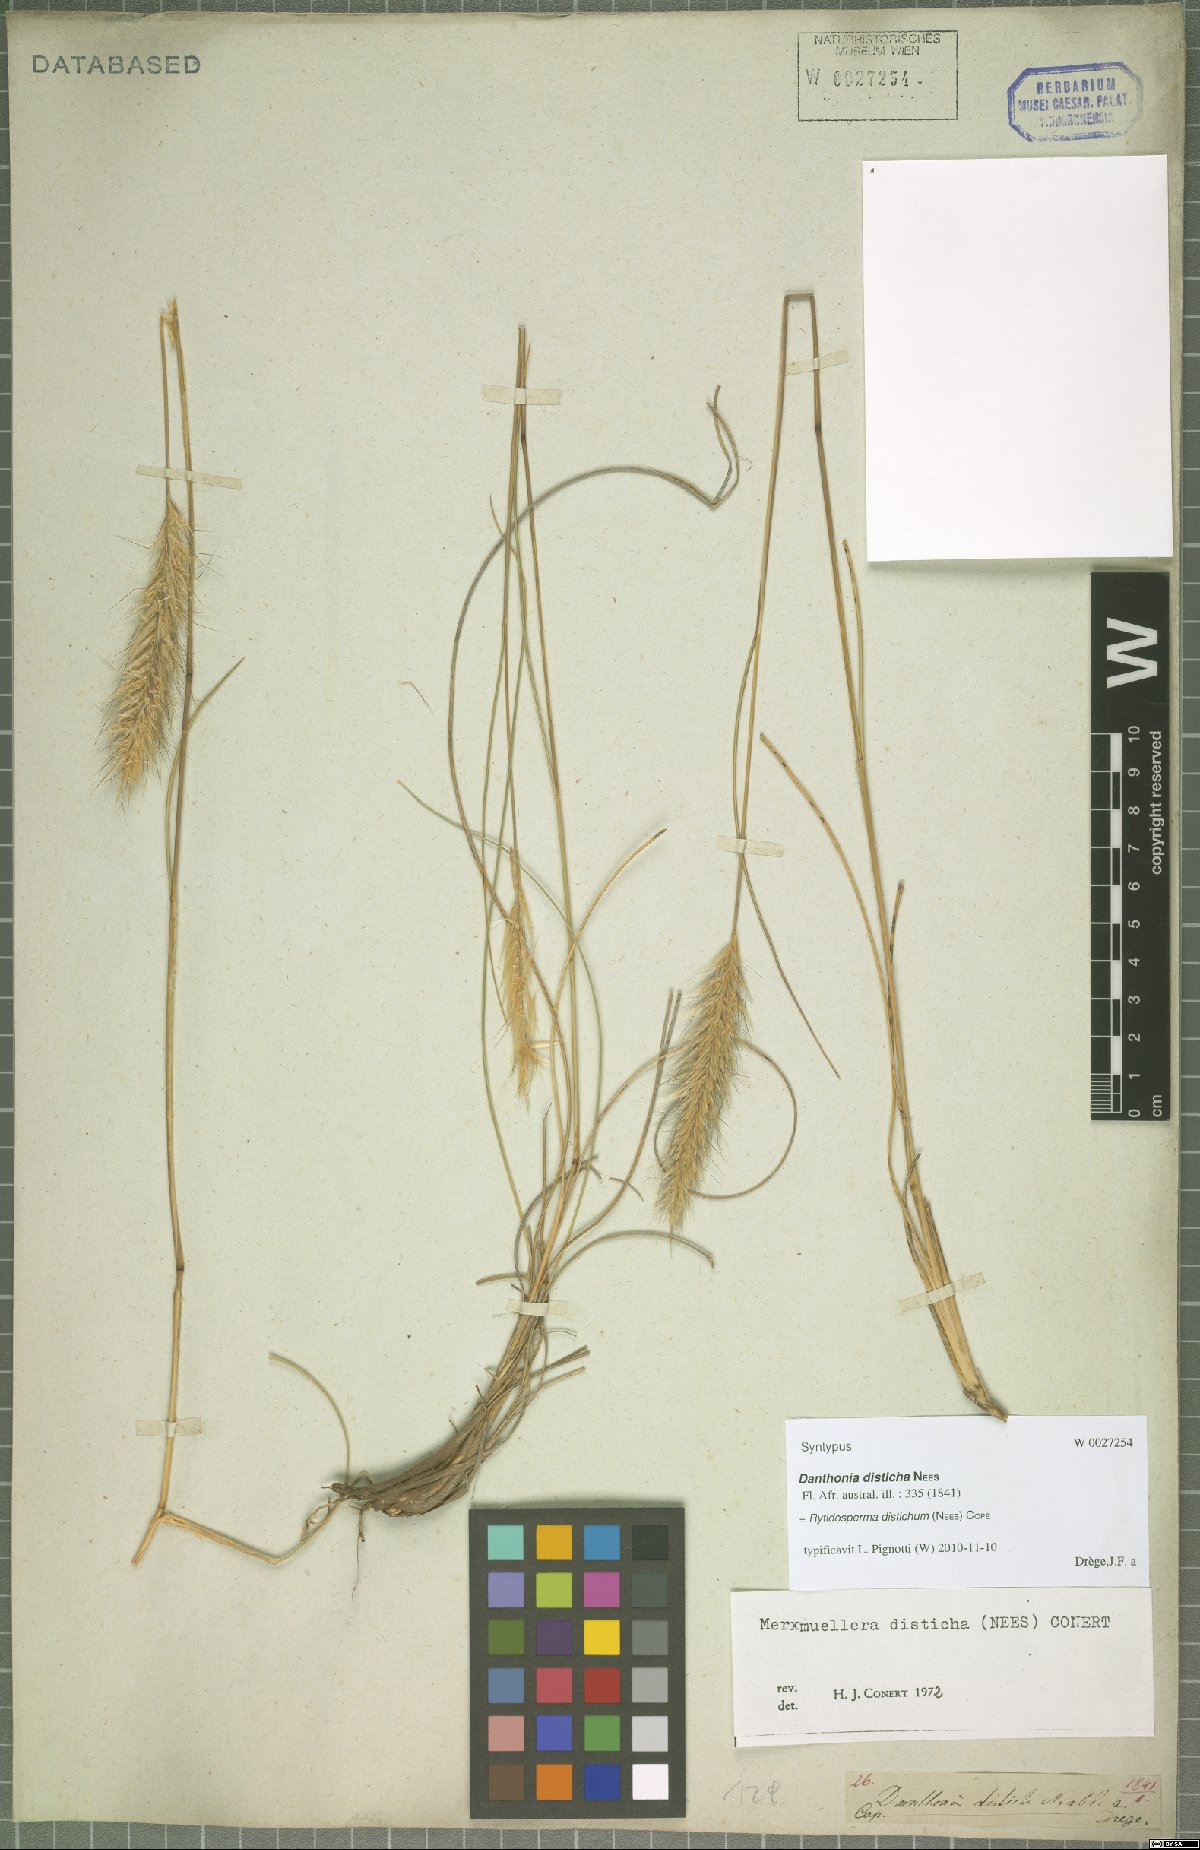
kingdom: Plantae
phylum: Tracheophyta
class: Liliopsida
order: Poales
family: Poaceae
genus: Tenaxia
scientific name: Tenaxia disticha
